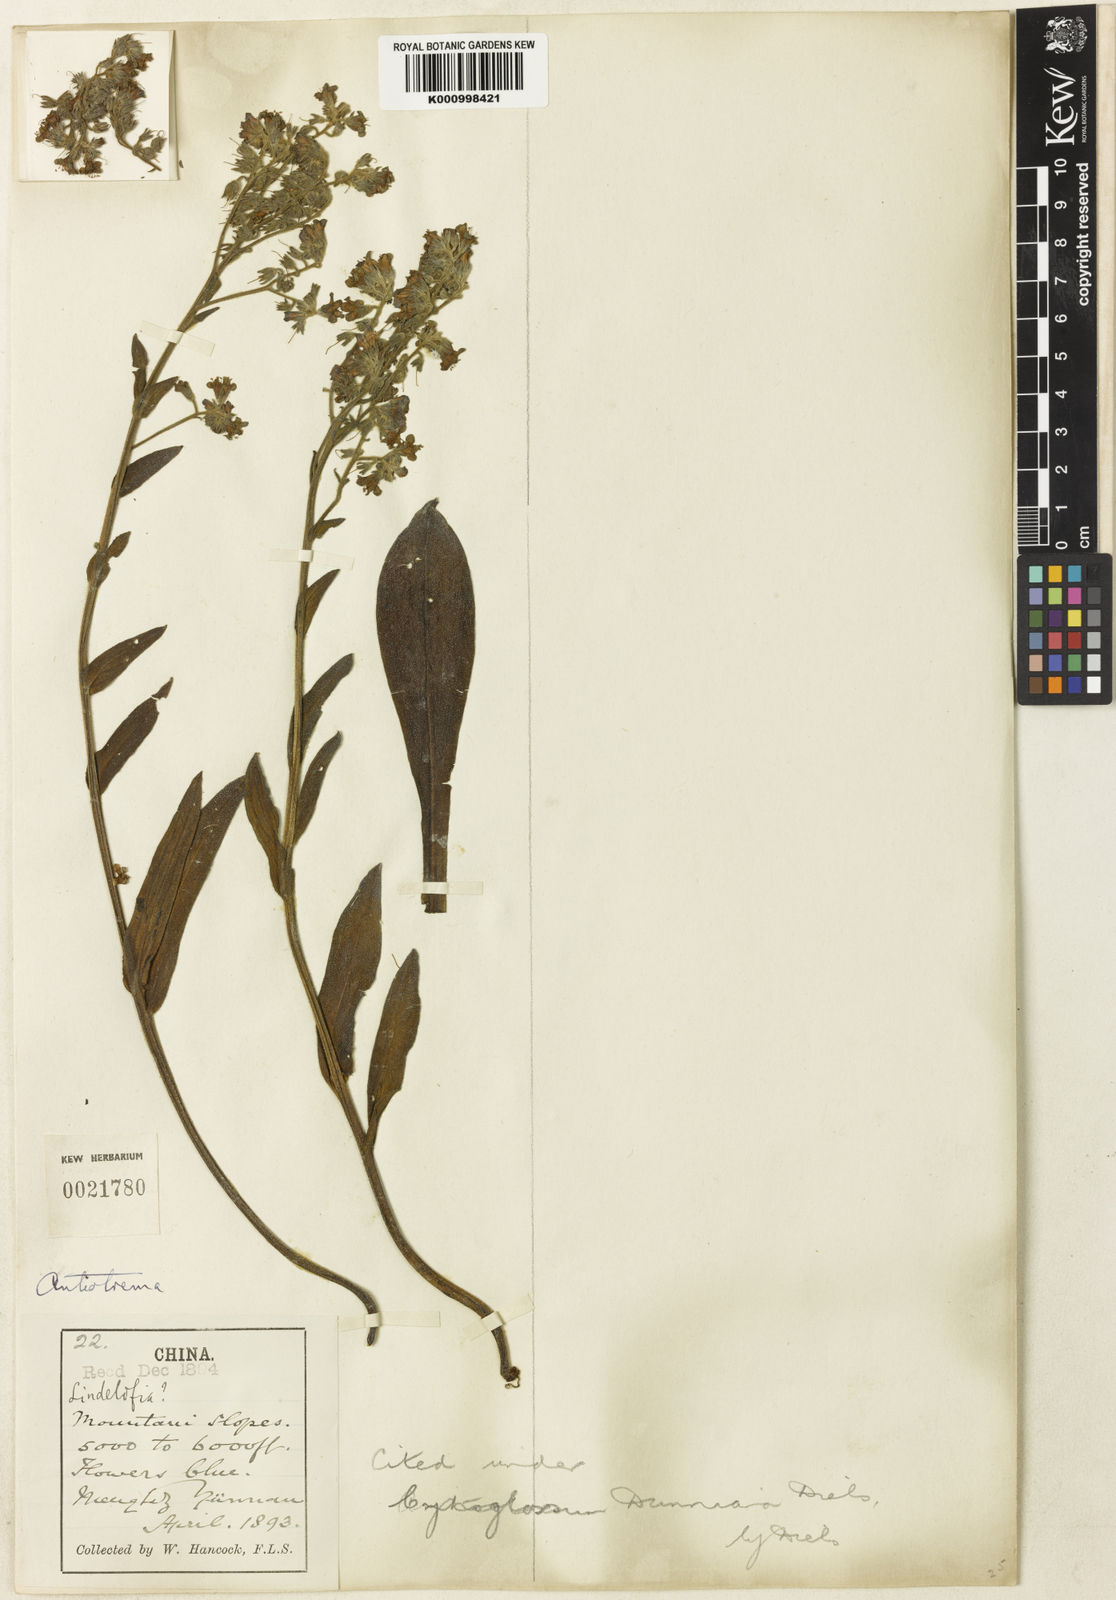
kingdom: Plantae
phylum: Tracheophyta
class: Magnoliopsida
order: Boraginales
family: Boraginaceae
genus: Antiotrema
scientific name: Antiotrema dunnianum
